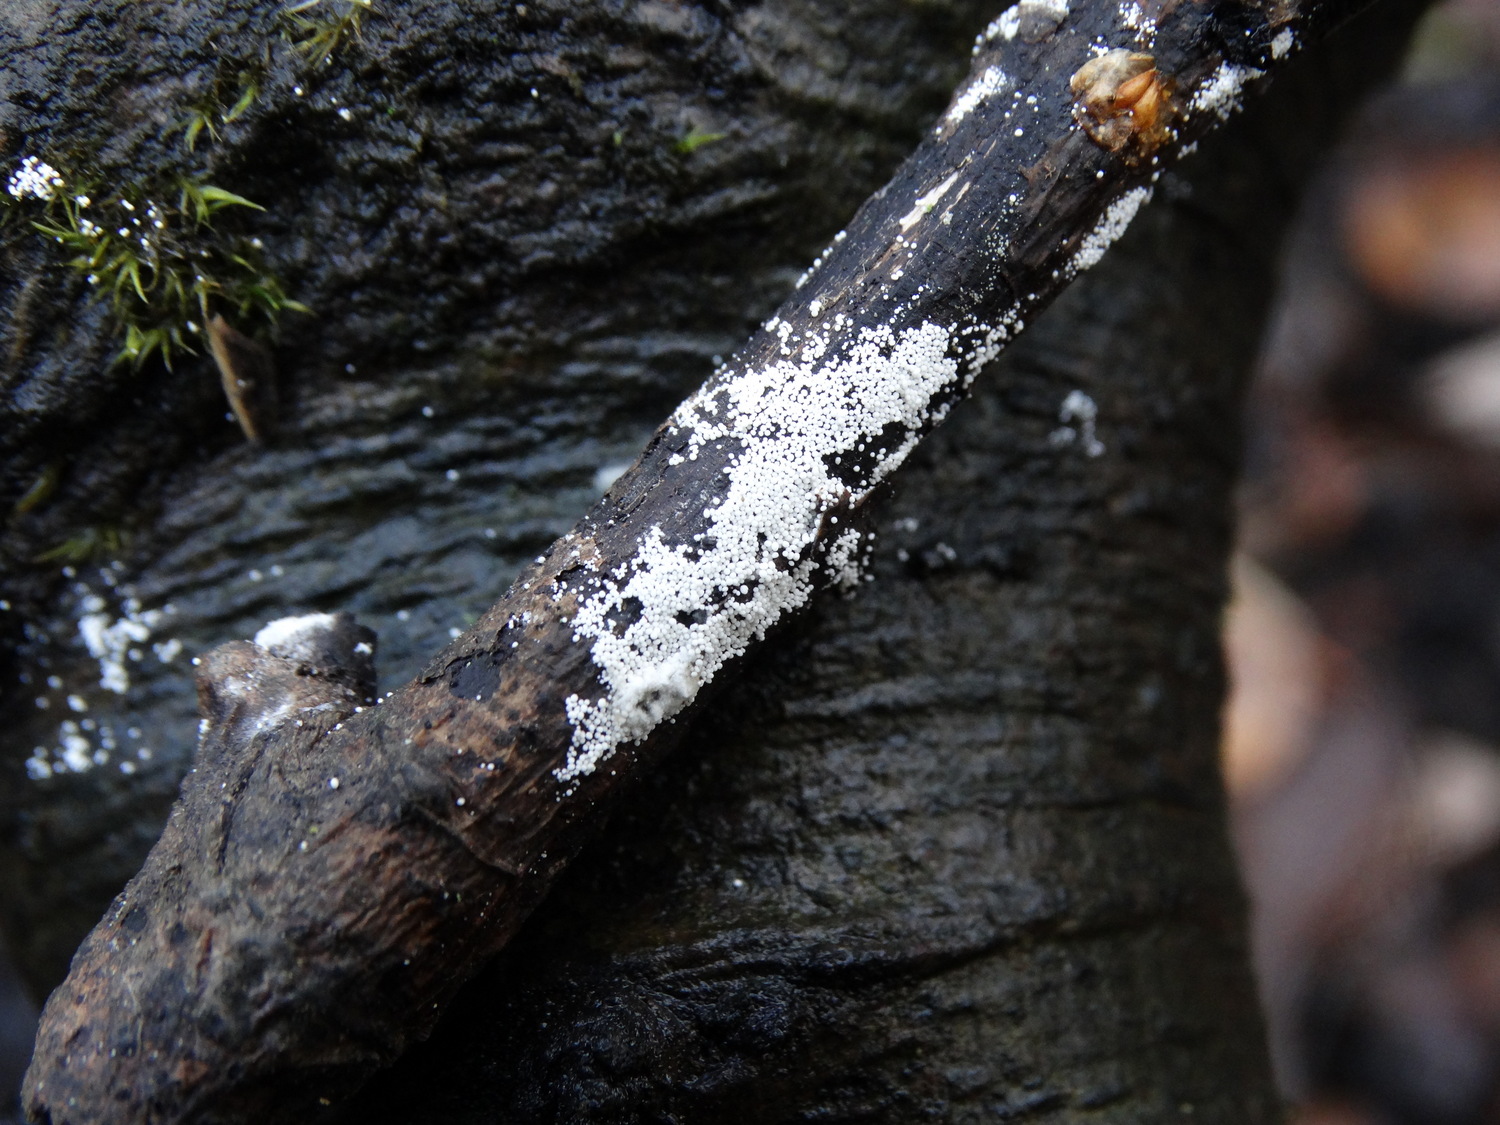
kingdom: Fungi
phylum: Basidiomycota
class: Agaricomycetes
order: Polyporales
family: Meruliaceae
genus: Bulbillomyces
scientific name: Bulbillomyces farinosus
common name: æg-kalkskind
